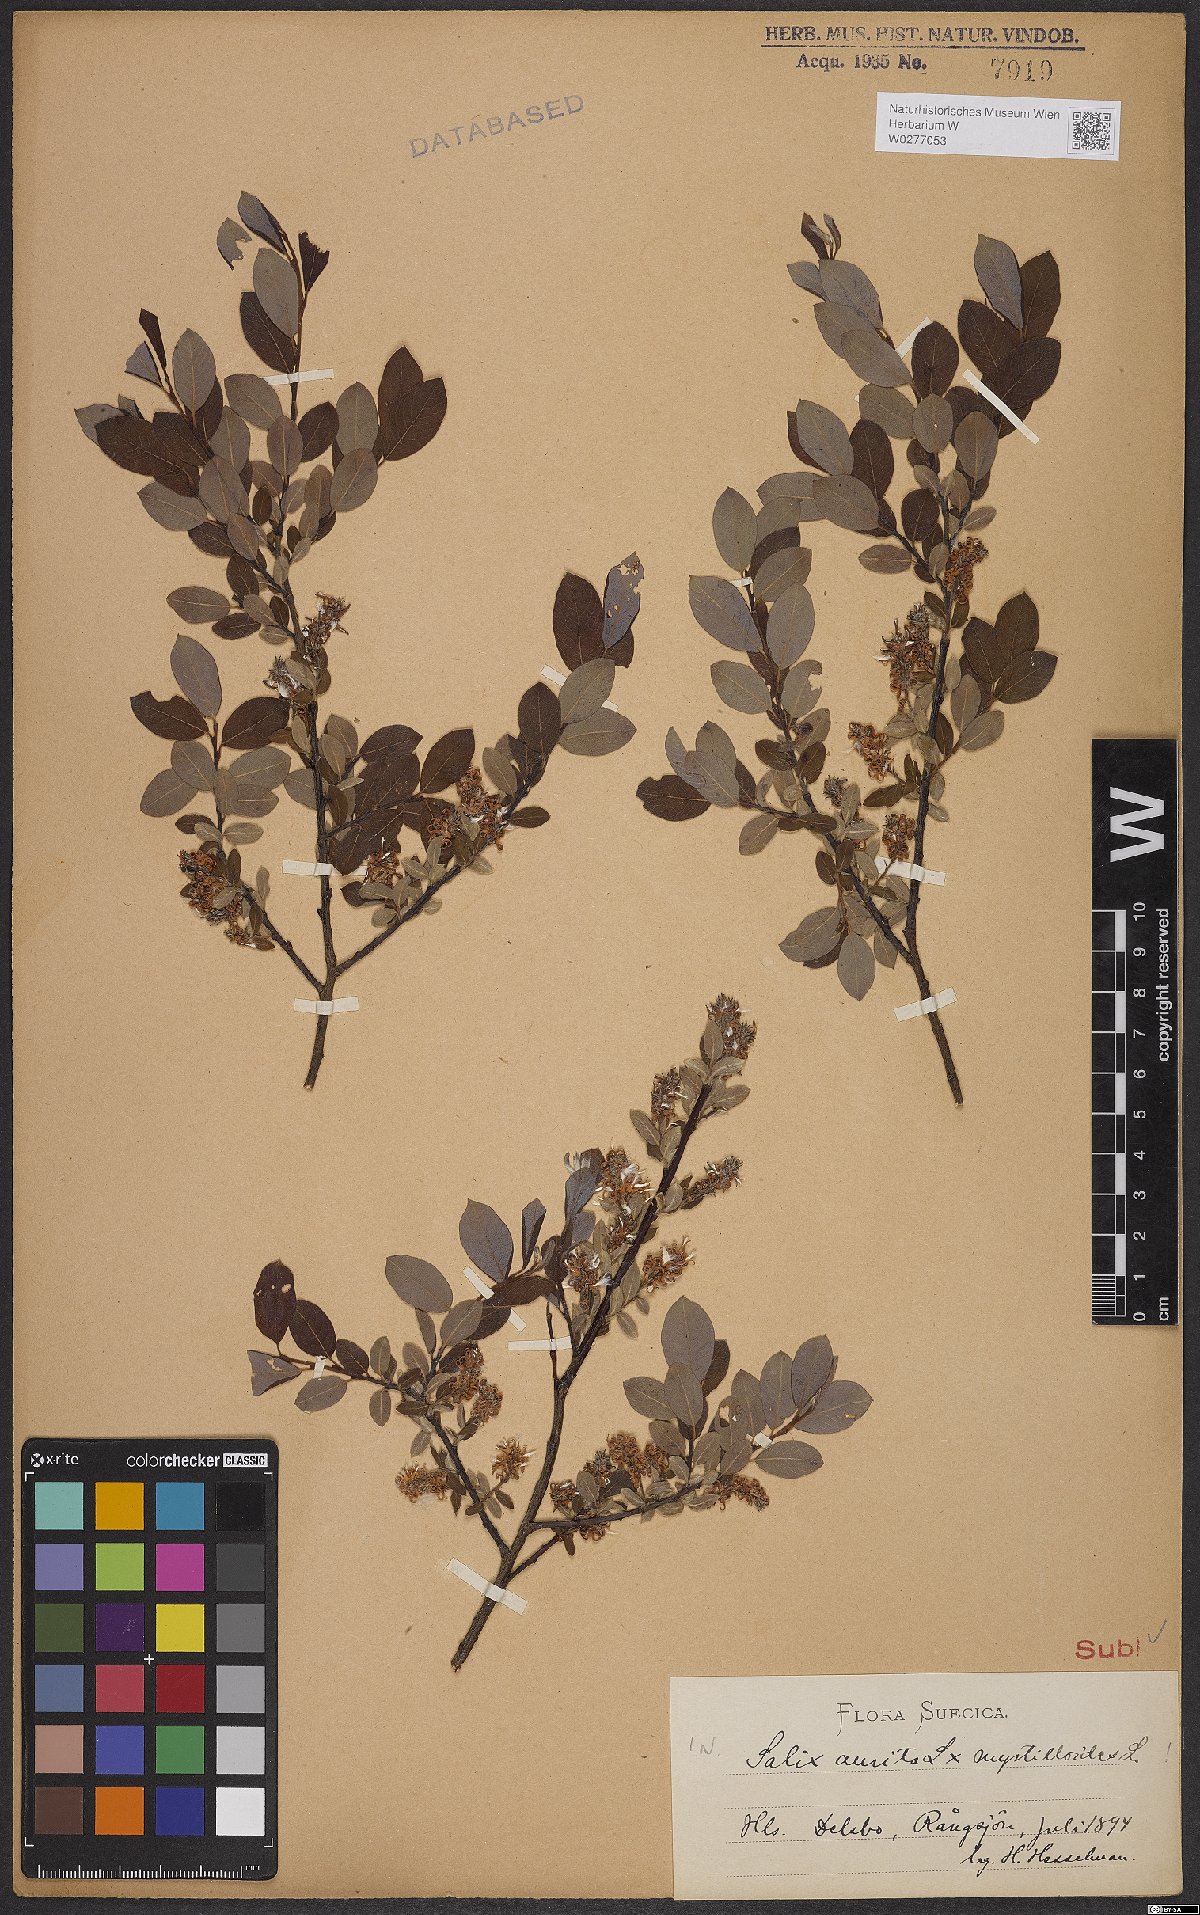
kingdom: Plantae
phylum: Tracheophyta
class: Magnoliopsida
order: Malpighiales
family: Salicaceae
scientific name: Salicaceae
